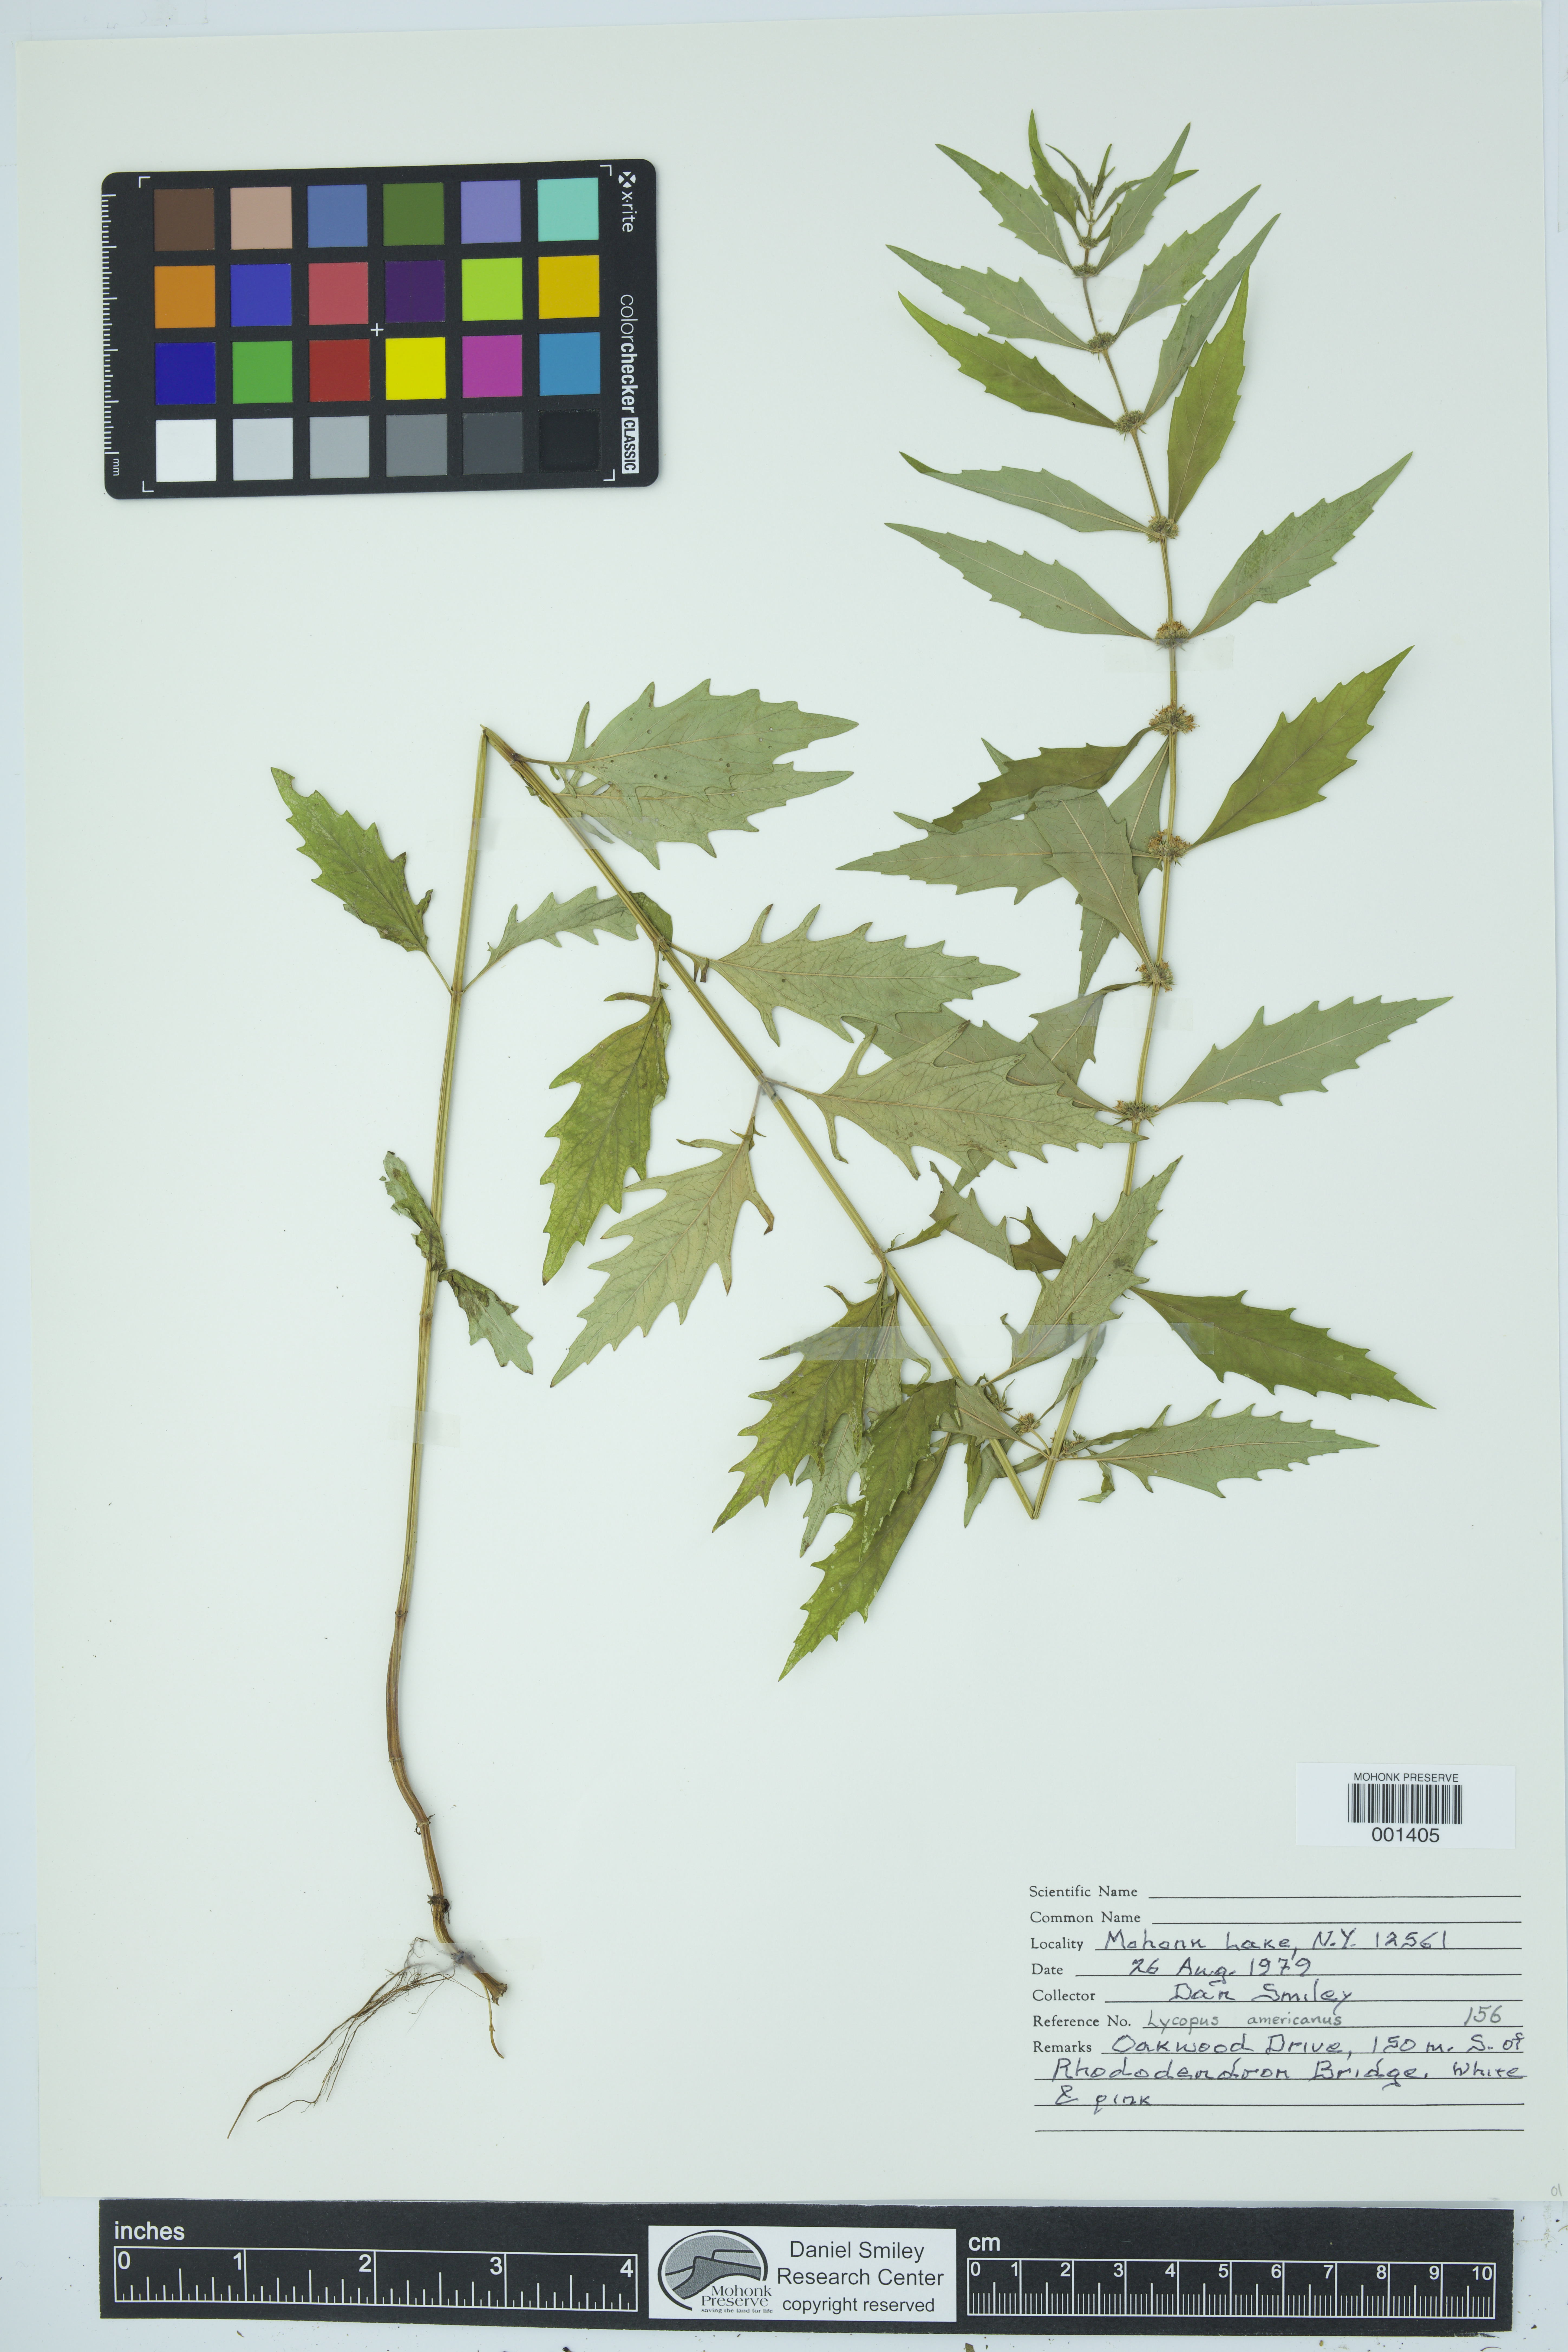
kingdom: Plantae
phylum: Tracheophyta
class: Magnoliopsida
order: Lamiales
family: Lamiaceae
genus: Lycopus
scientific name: Lycopus americanus
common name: American bugleweed
